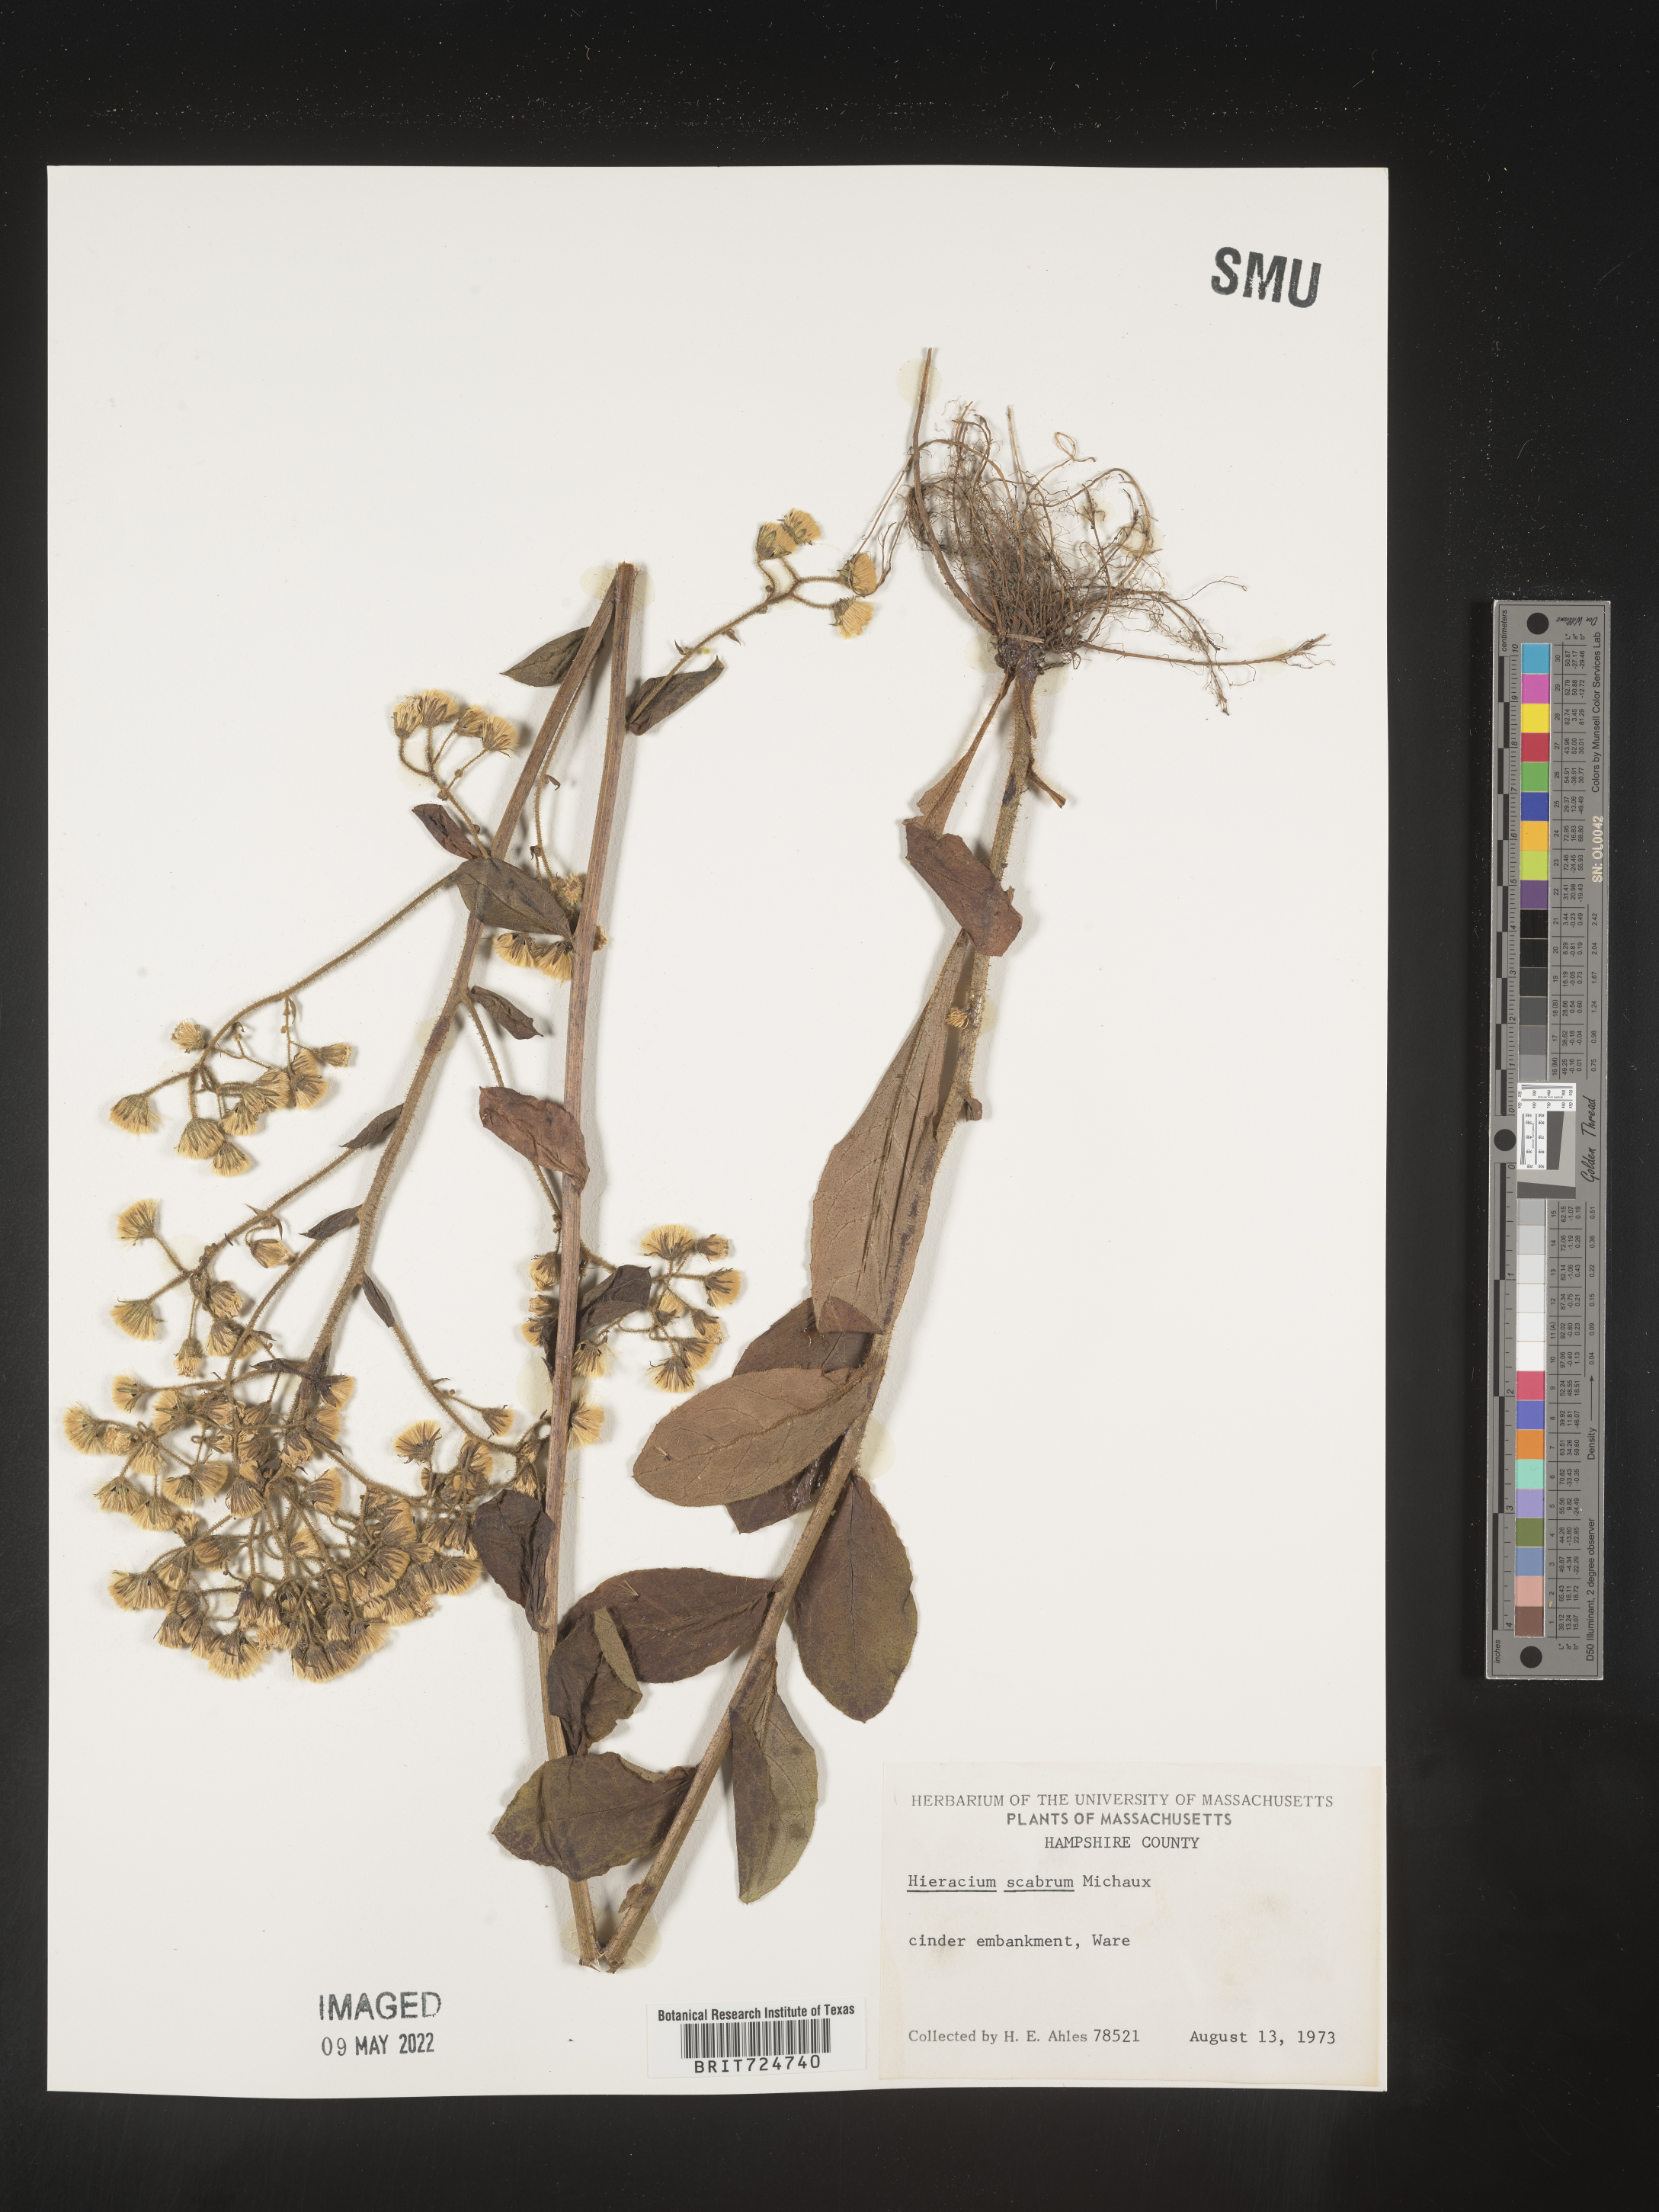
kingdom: Plantae
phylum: Tracheophyta
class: Magnoliopsida
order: Asterales
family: Asteraceae
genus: Hieracium
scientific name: Hieracium scabrum
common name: Rough hawkweed
